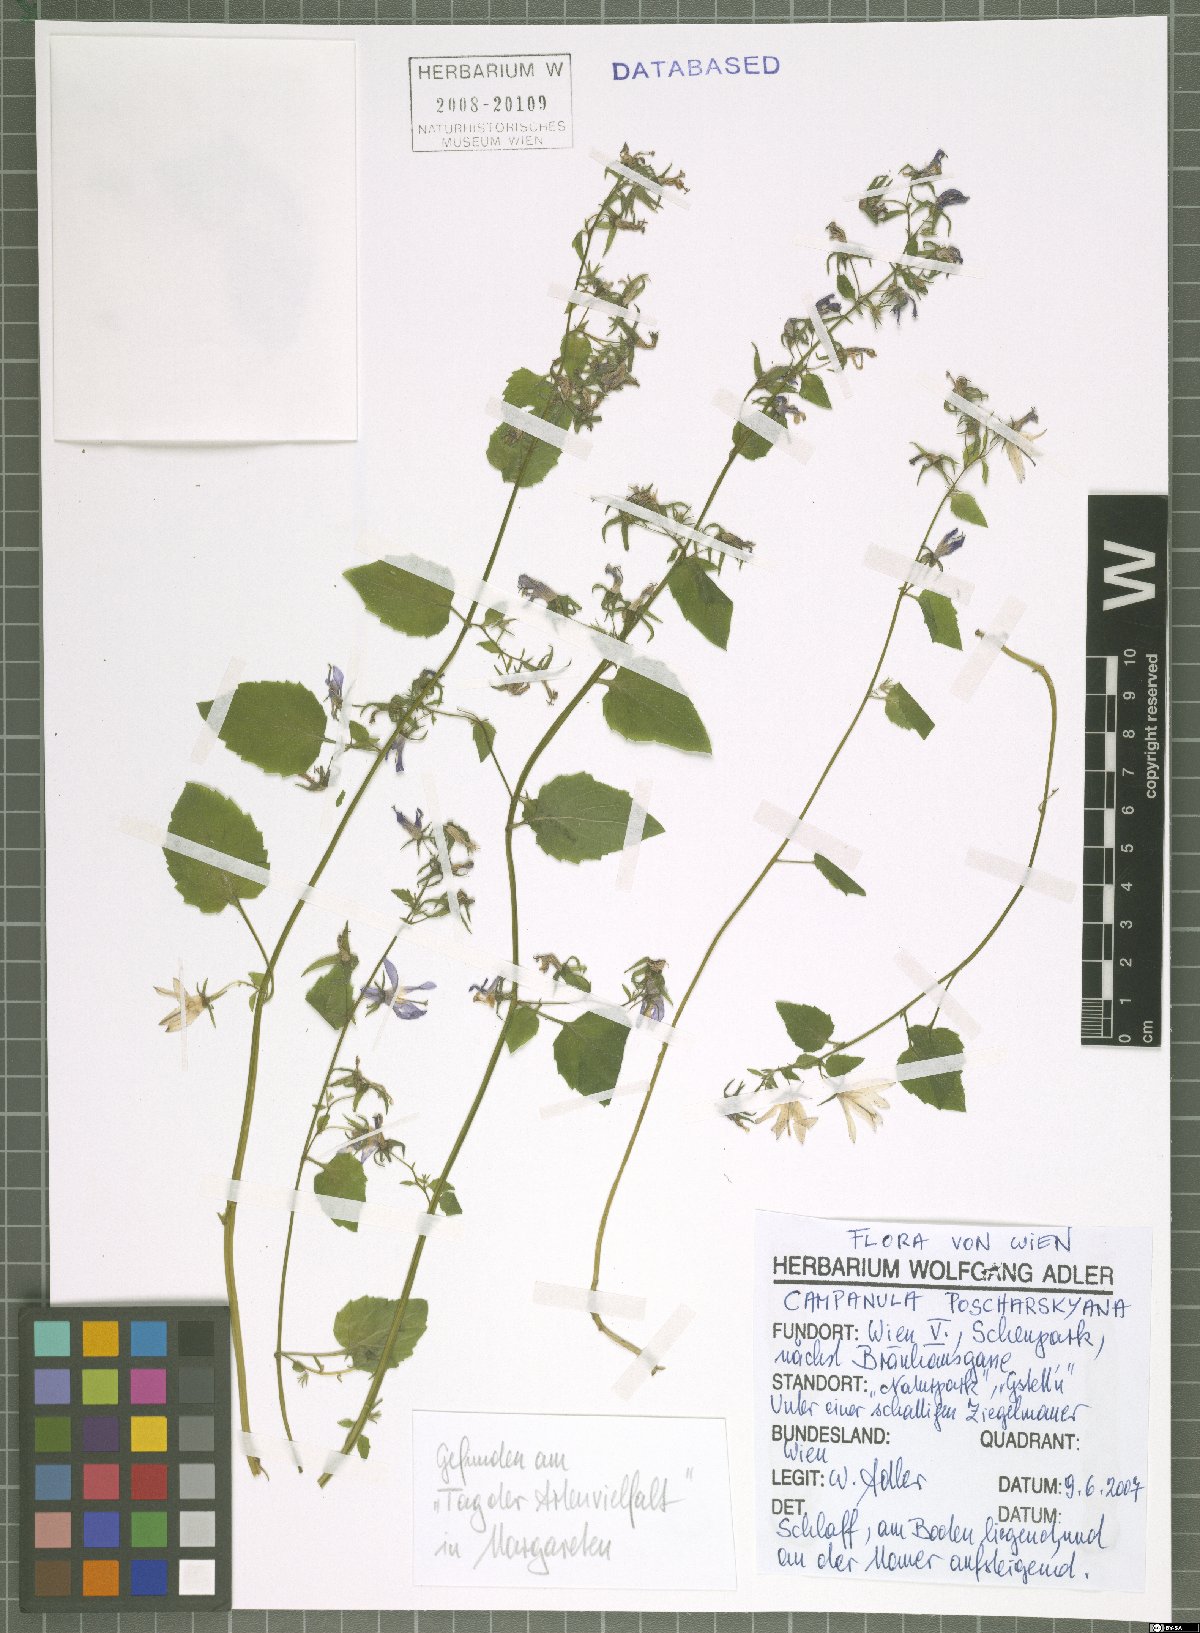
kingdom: Plantae
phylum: Tracheophyta
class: Magnoliopsida
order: Asterales
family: Campanulaceae
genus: Campanula
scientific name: Campanula poscharskyana
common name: Trailing bellflower
